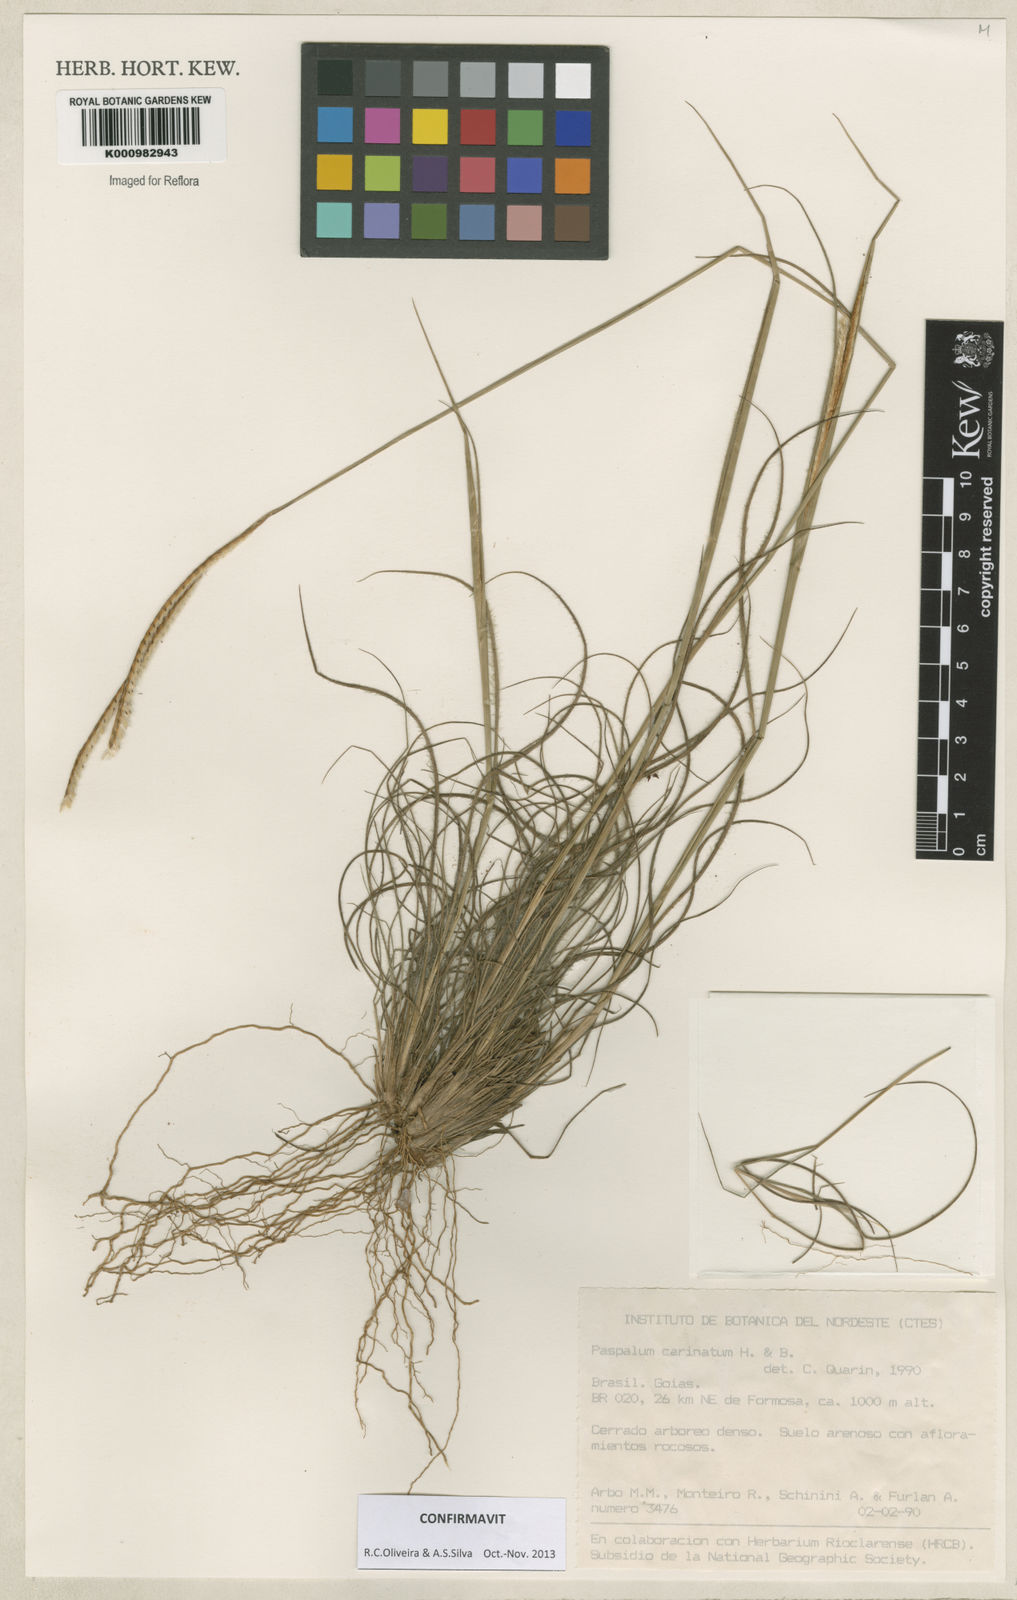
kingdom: Plantae
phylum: Tracheophyta
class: Liliopsida
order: Poales
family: Poaceae
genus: Paspalum
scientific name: Paspalum
